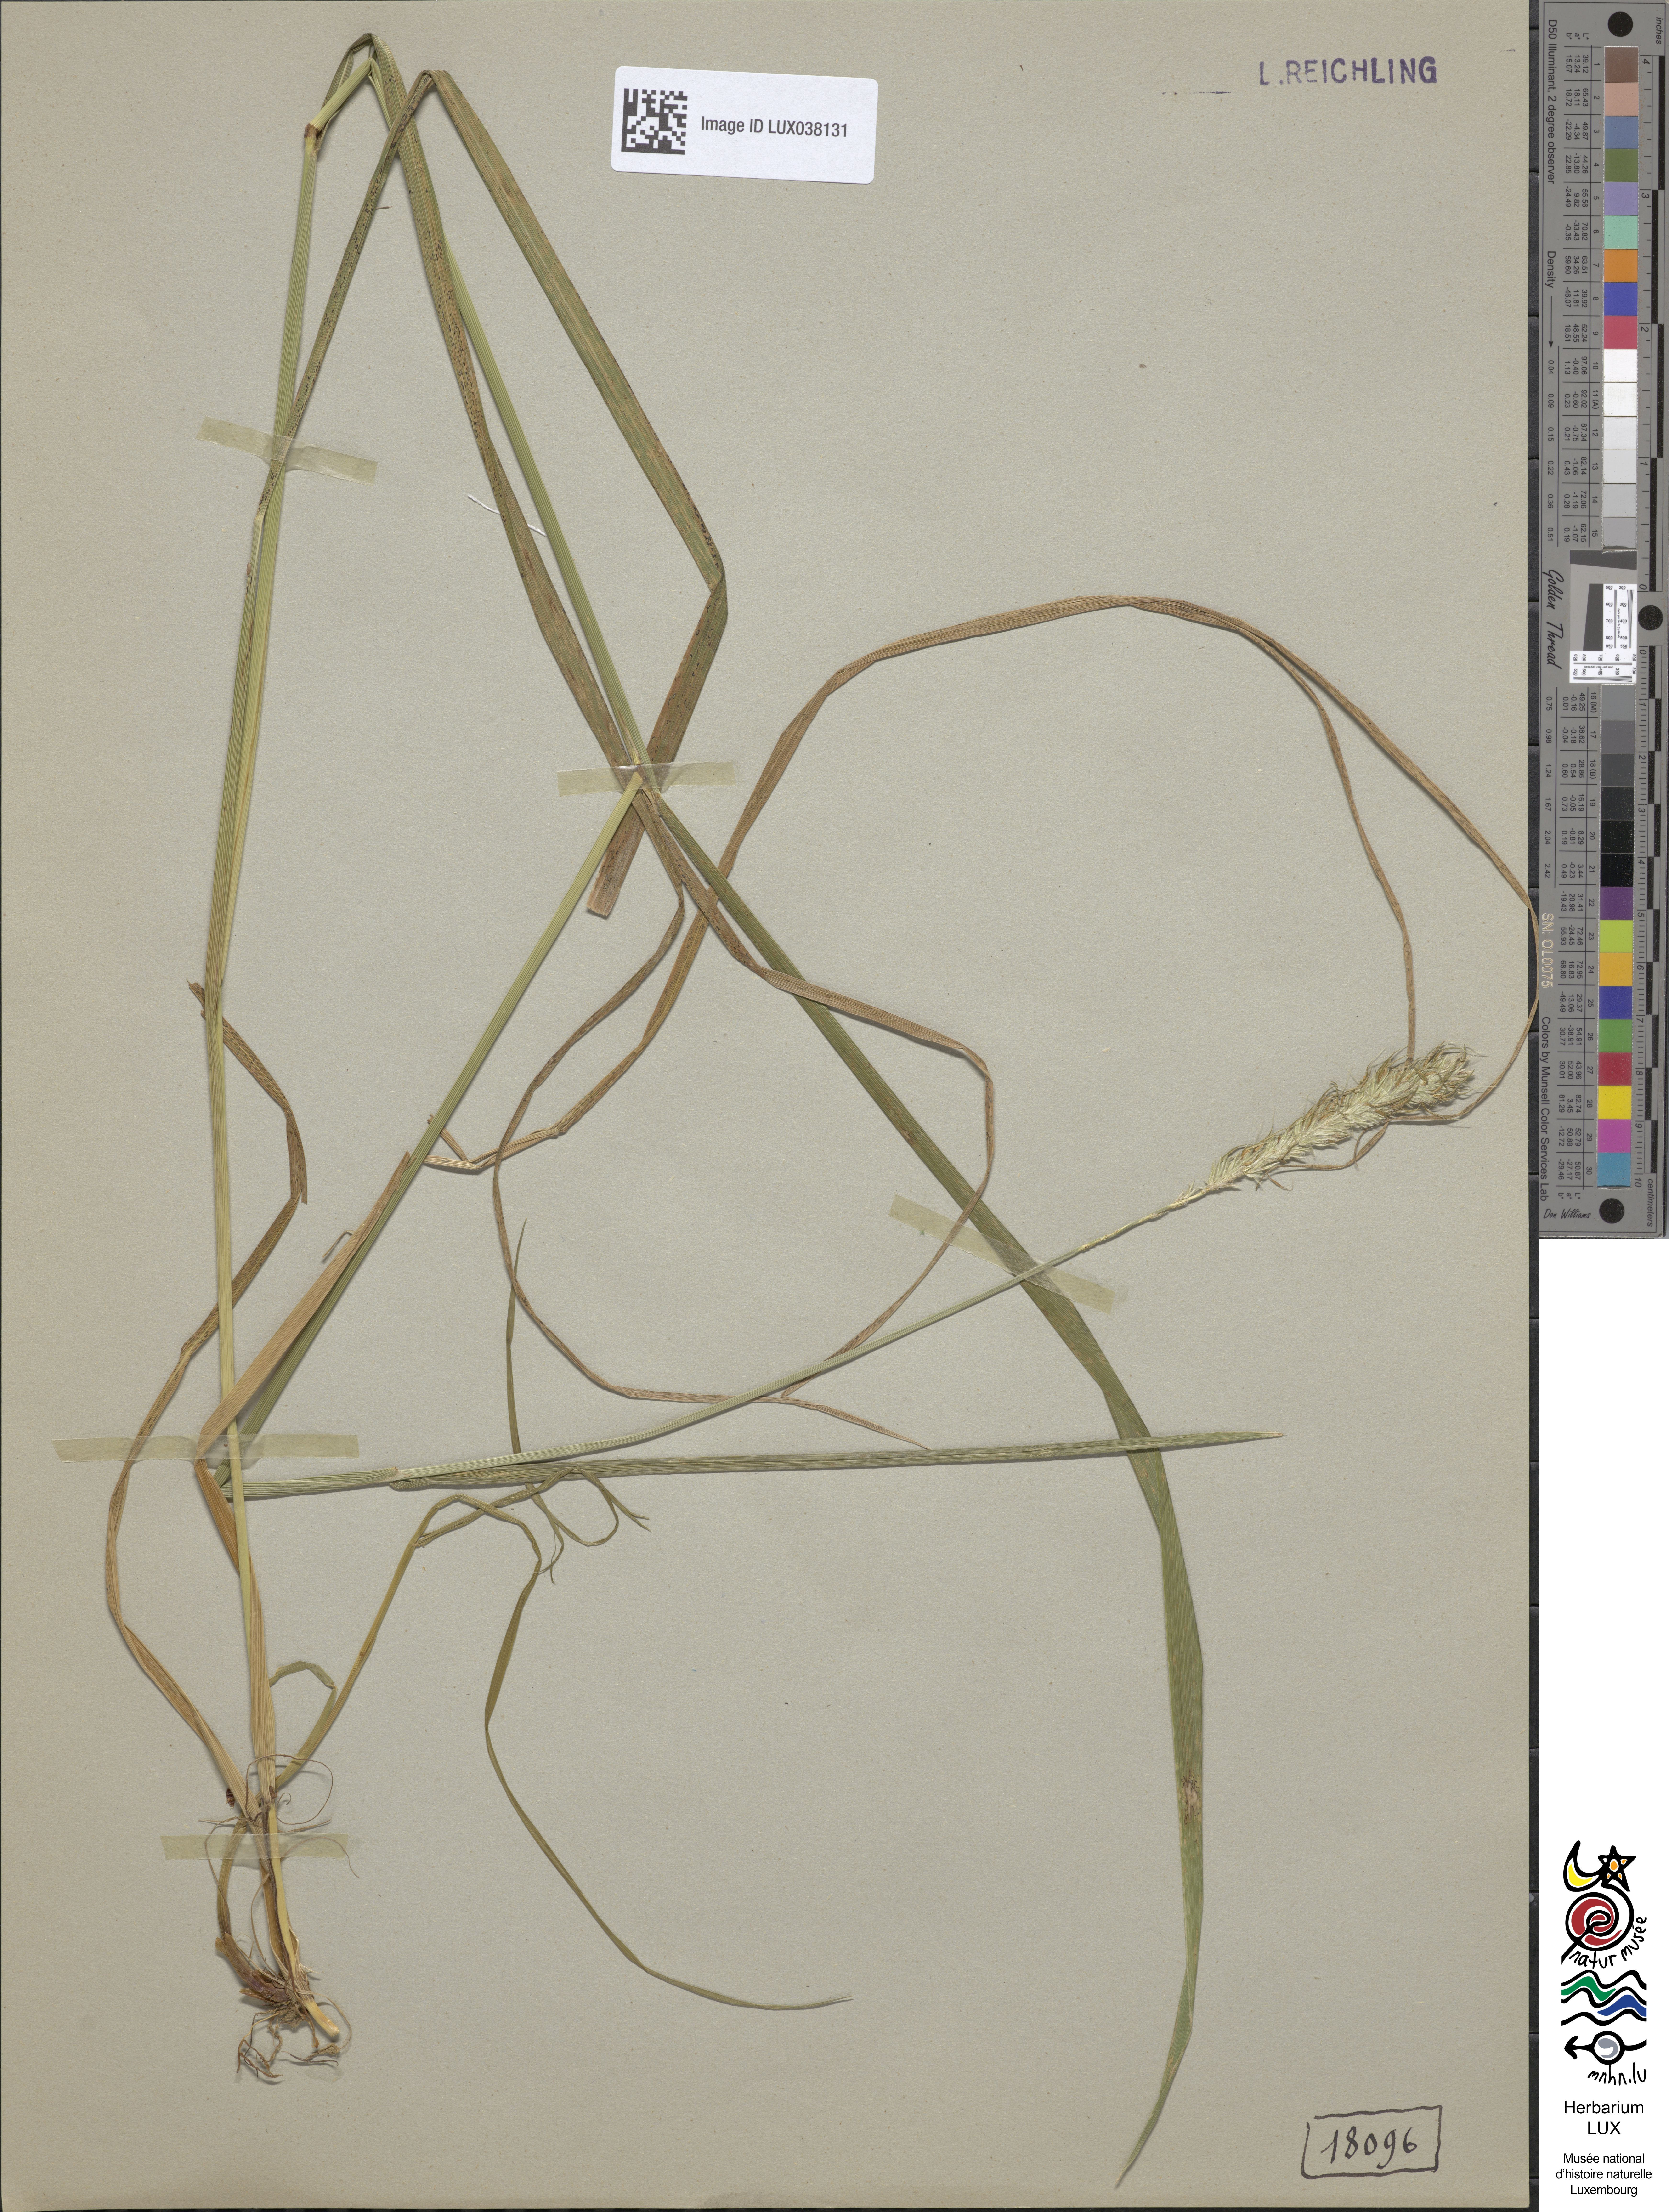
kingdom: Plantae
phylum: Tracheophyta
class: Liliopsida
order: Poales
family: Poaceae
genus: Alopecurus
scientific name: Alopecurus pratensis
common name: Meadow foxtail
